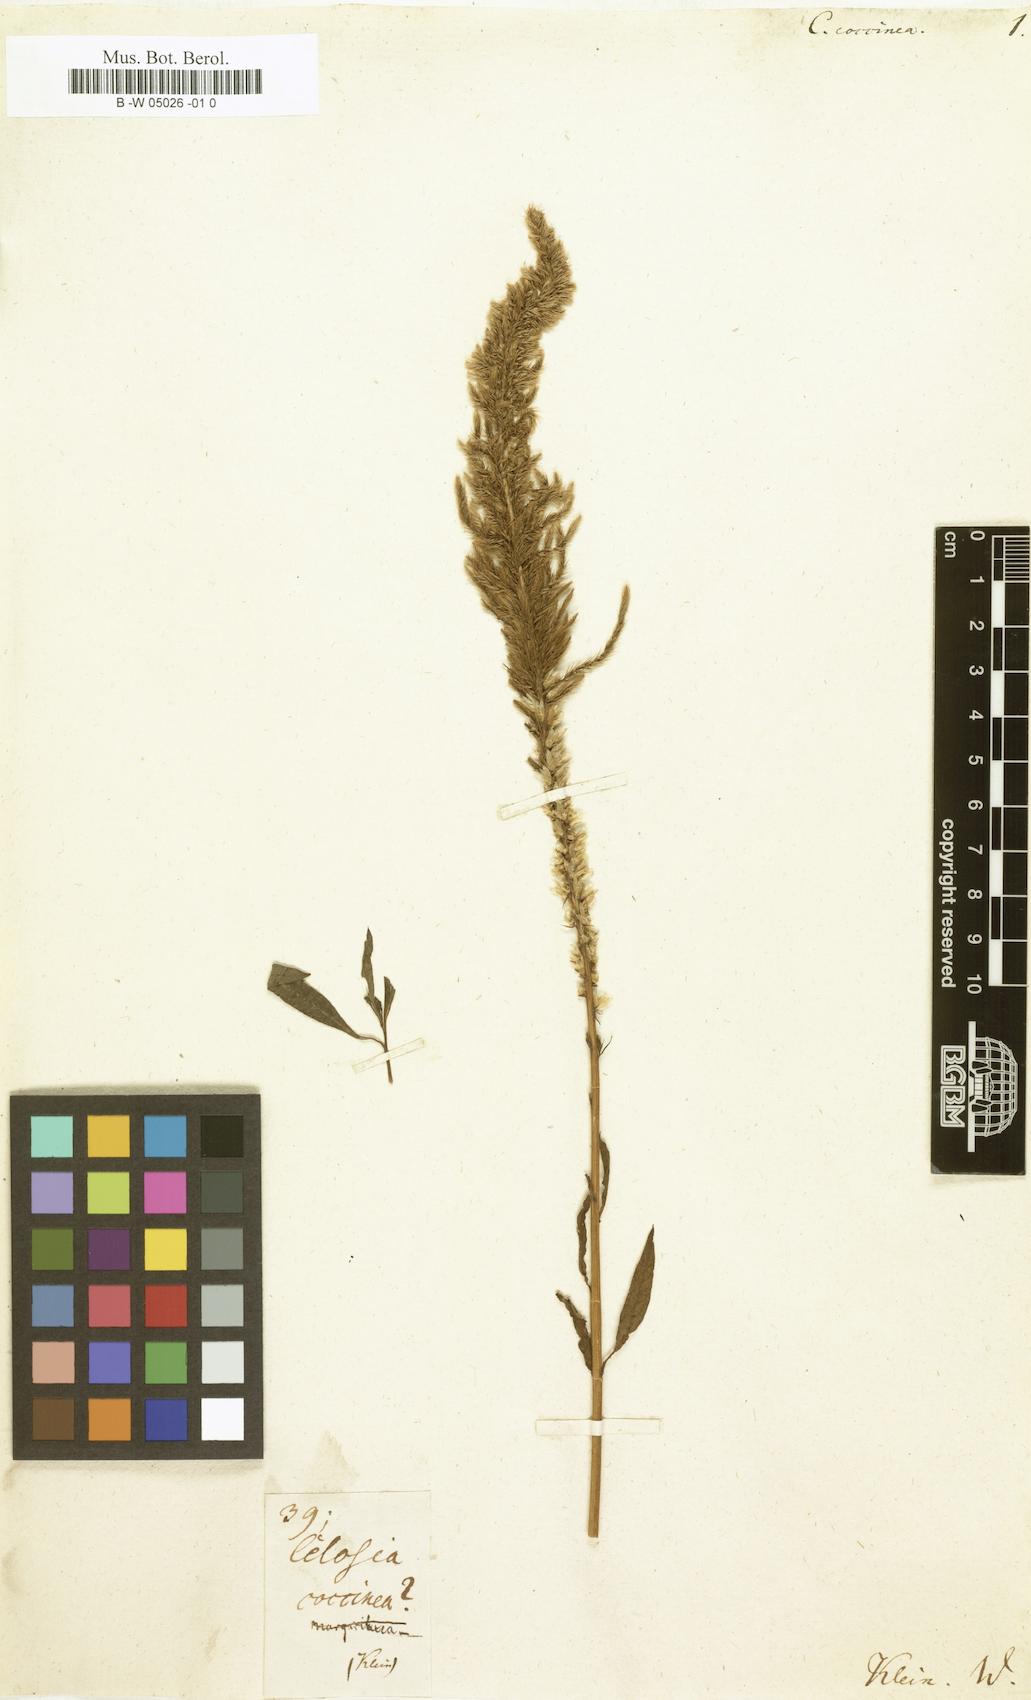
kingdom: Plantae
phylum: Tracheophyta
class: Magnoliopsida
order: Caryophyllales
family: Amaranthaceae
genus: Celosia
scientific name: Celosia argentea
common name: Feather cockscomb
